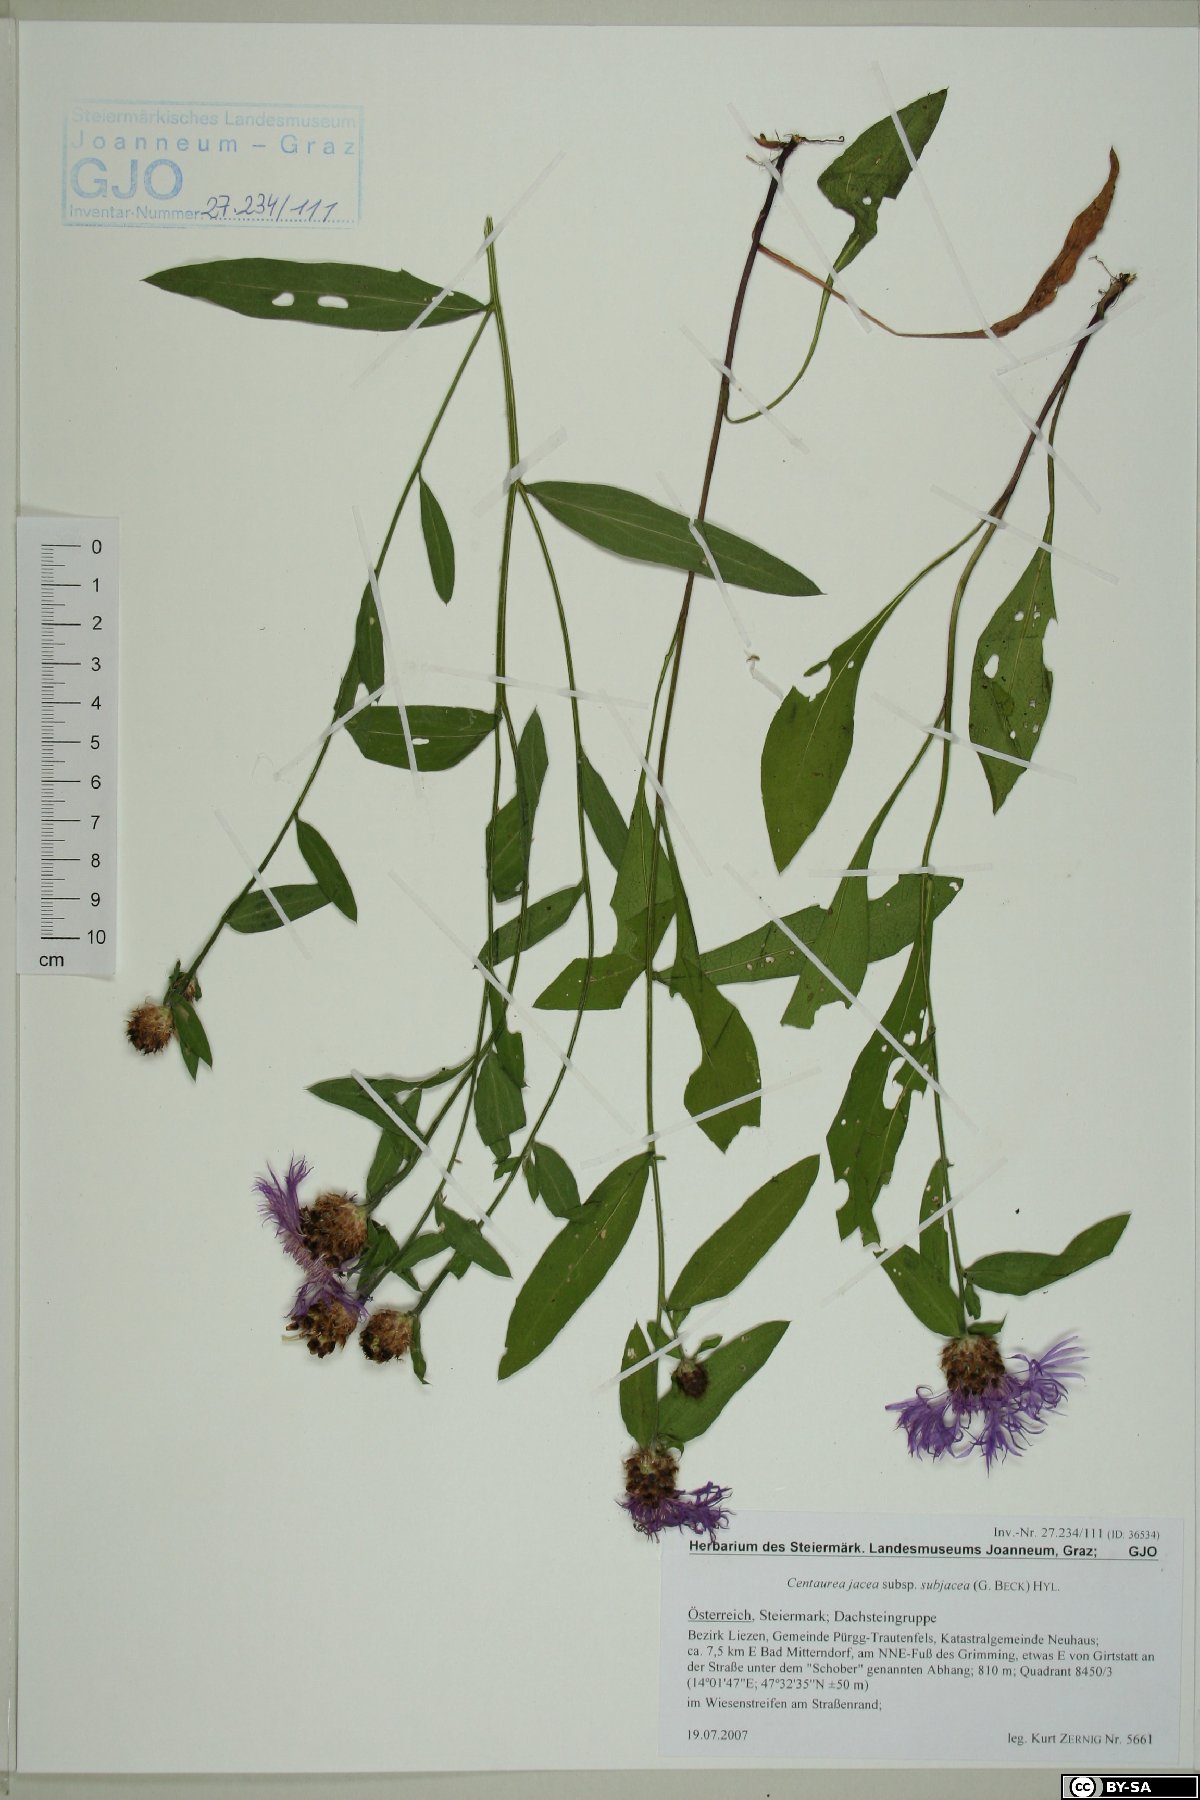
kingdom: Plantae
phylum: Tracheophyta
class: Magnoliopsida
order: Asterales
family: Asteraceae
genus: Centaurea
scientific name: Centaurea preissmannii
